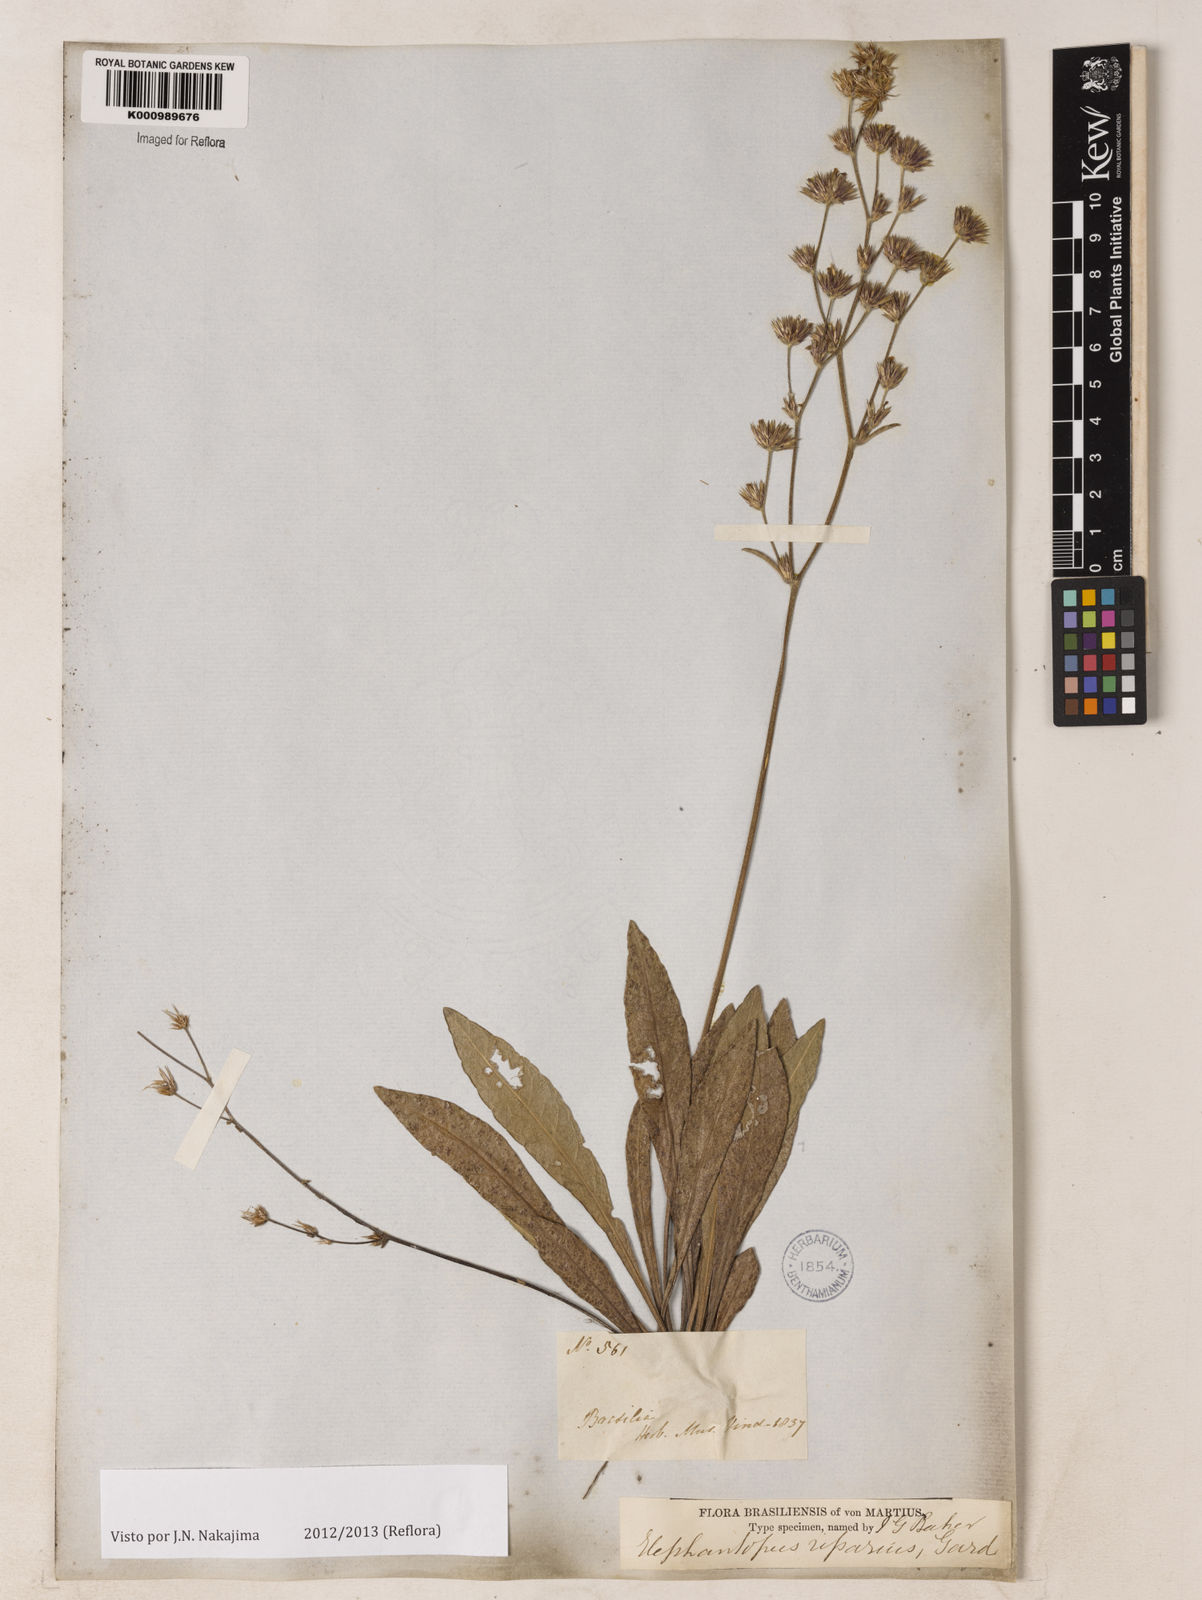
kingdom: Plantae
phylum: Tracheophyta
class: Magnoliopsida
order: Asterales
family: Asteraceae
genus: Elephantopus
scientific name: Elephantopus riparius
